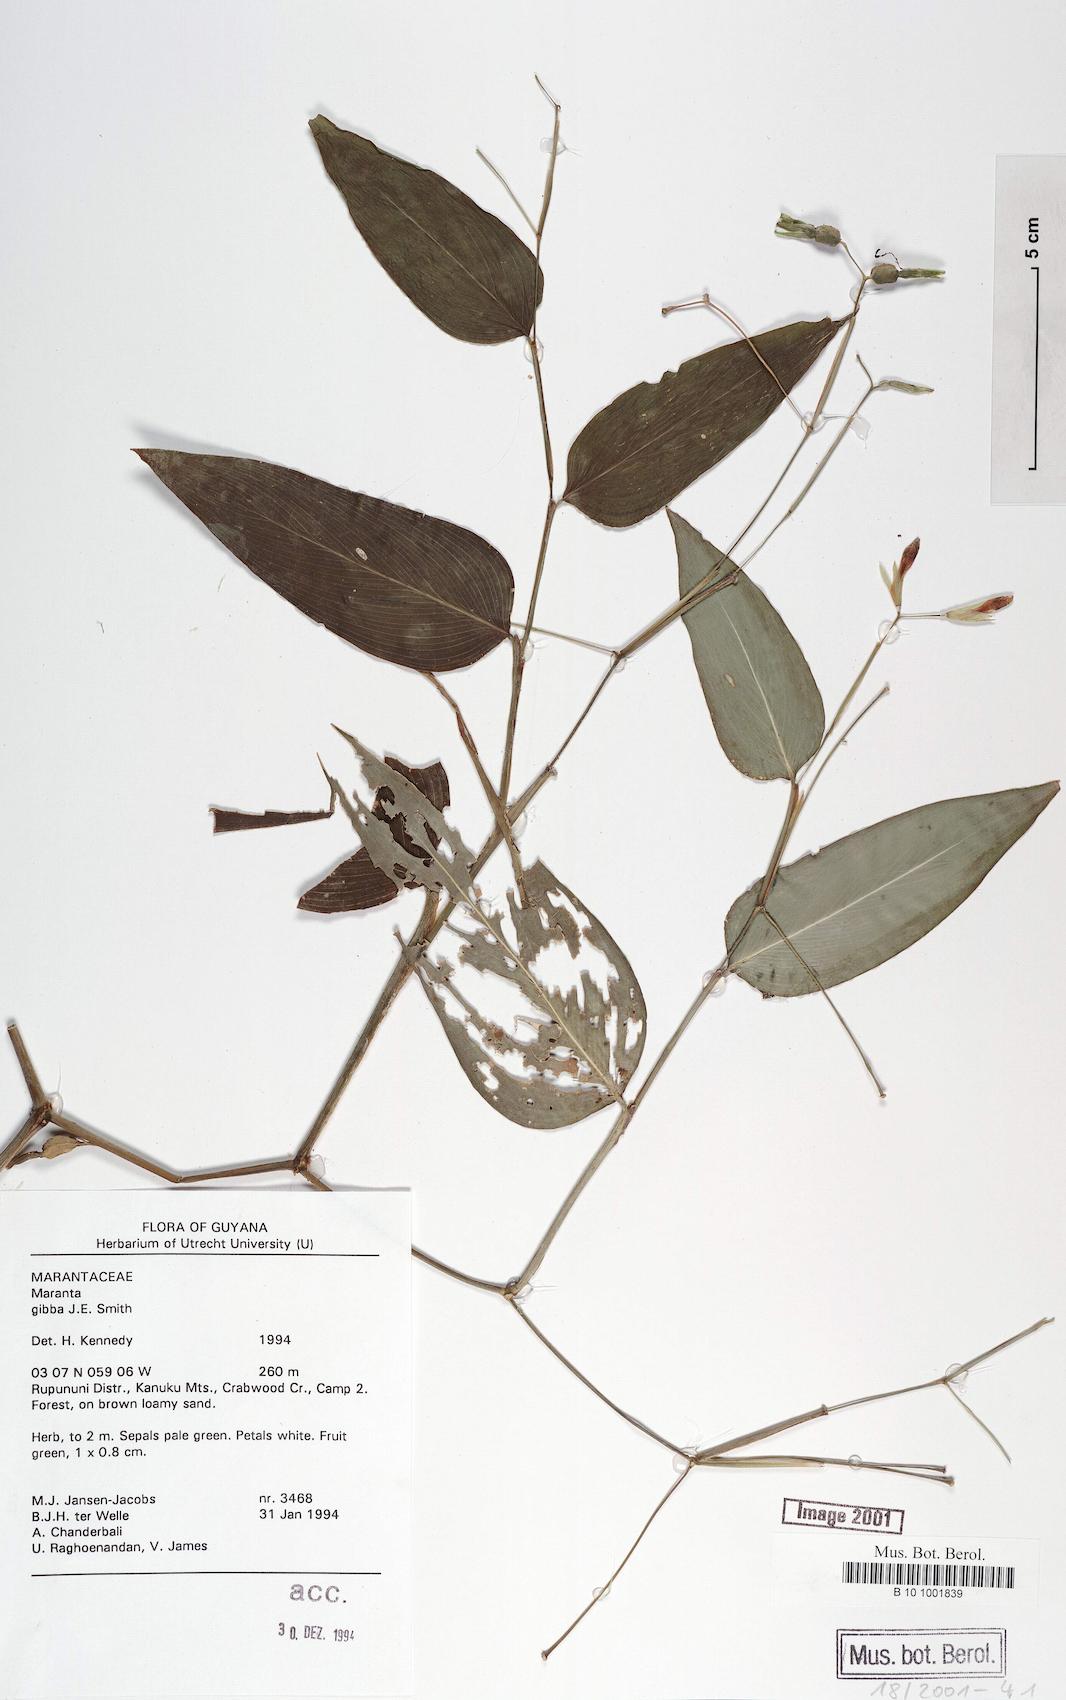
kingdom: Plantae
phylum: Tracheophyta
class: Liliopsida
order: Zingiberales
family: Marantaceae
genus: Maranta
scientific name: Maranta gibba
